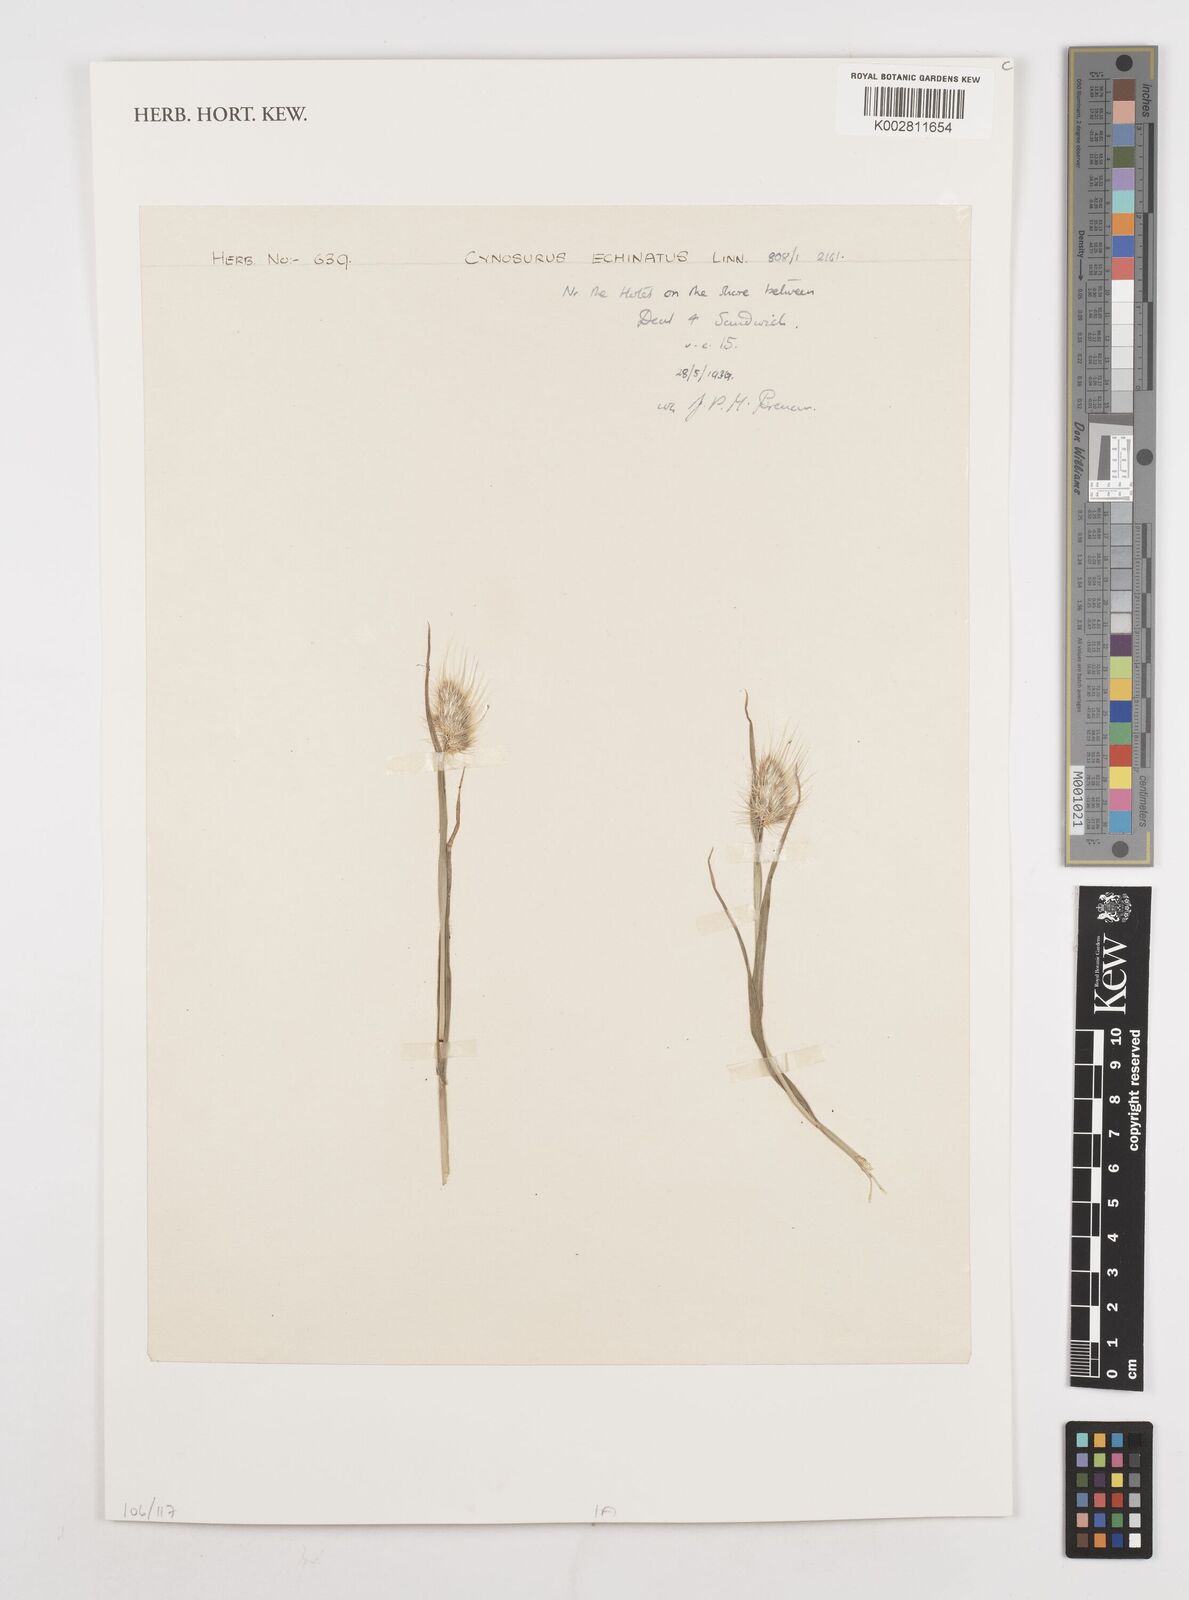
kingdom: Plantae
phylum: Tracheophyta
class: Liliopsida
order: Poales
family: Poaceae
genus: Cynosurus
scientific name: Cynosurus echinatus
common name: Rough dog's-tail
